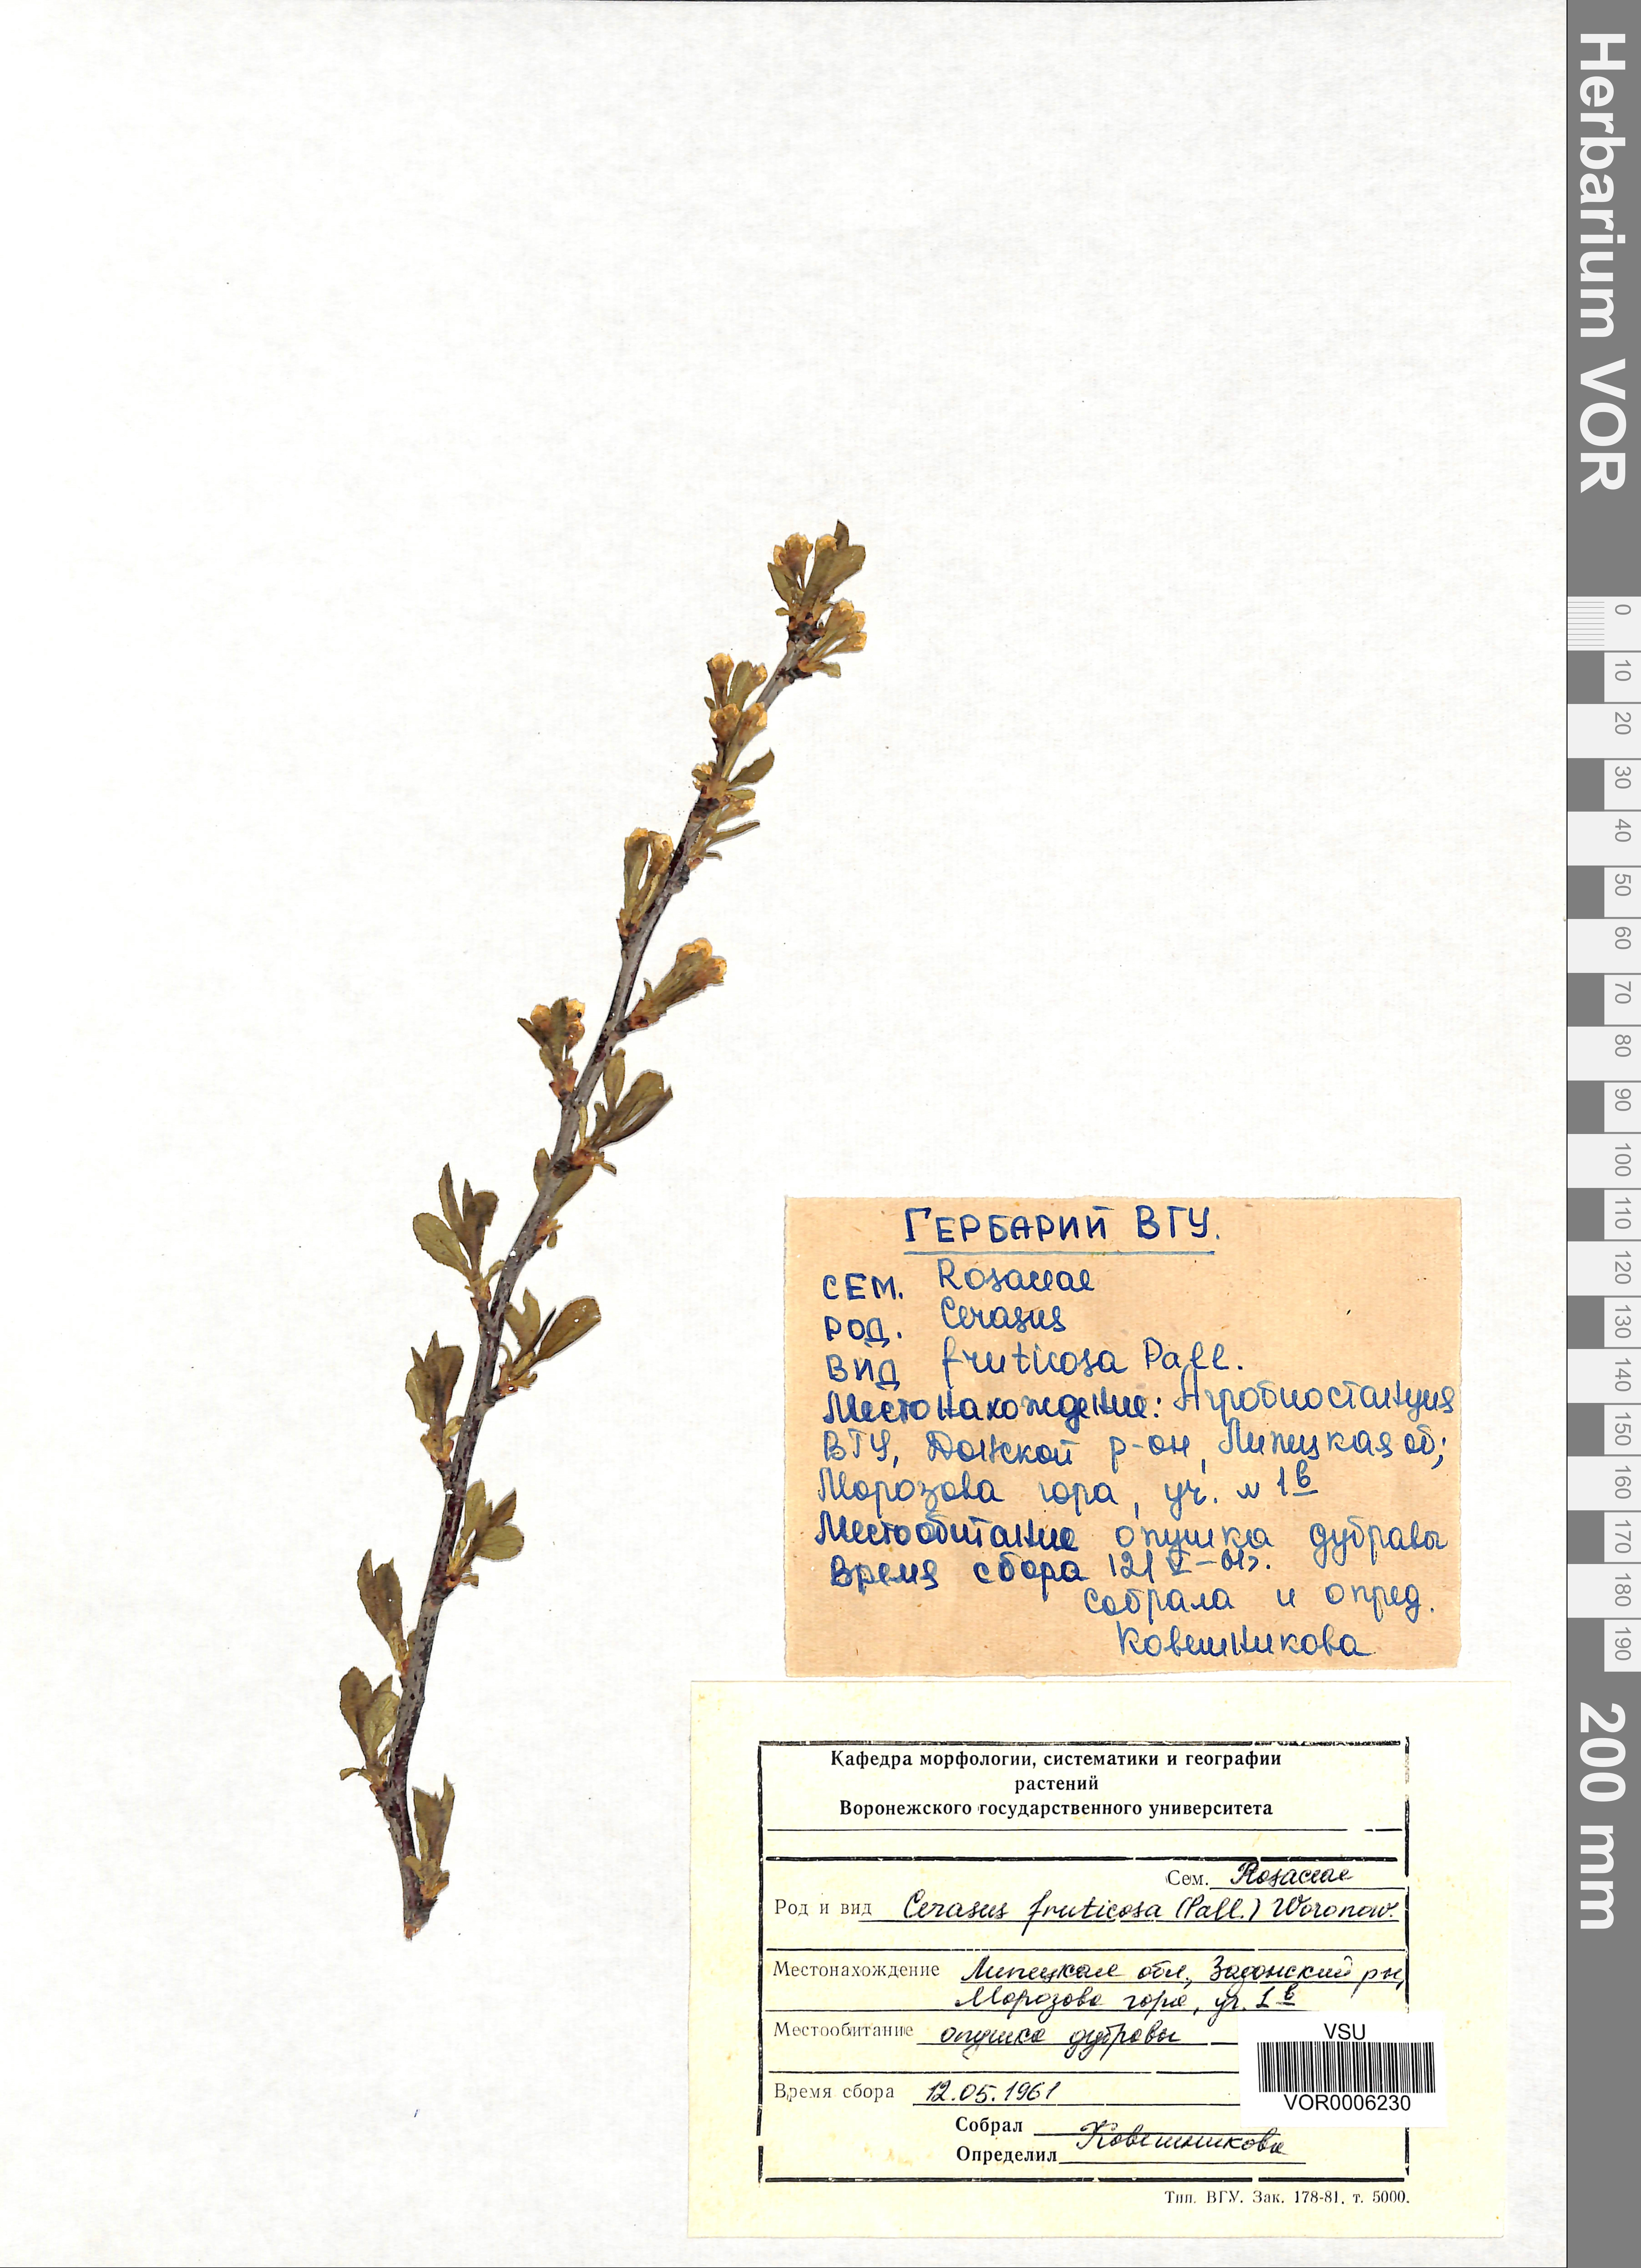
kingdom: Plantae
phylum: Tracheophyta
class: Magnoliopsida
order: Rosales
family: Rosaceae
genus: Prunus
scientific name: Prunus fruticosa
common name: European dwarf cherry
